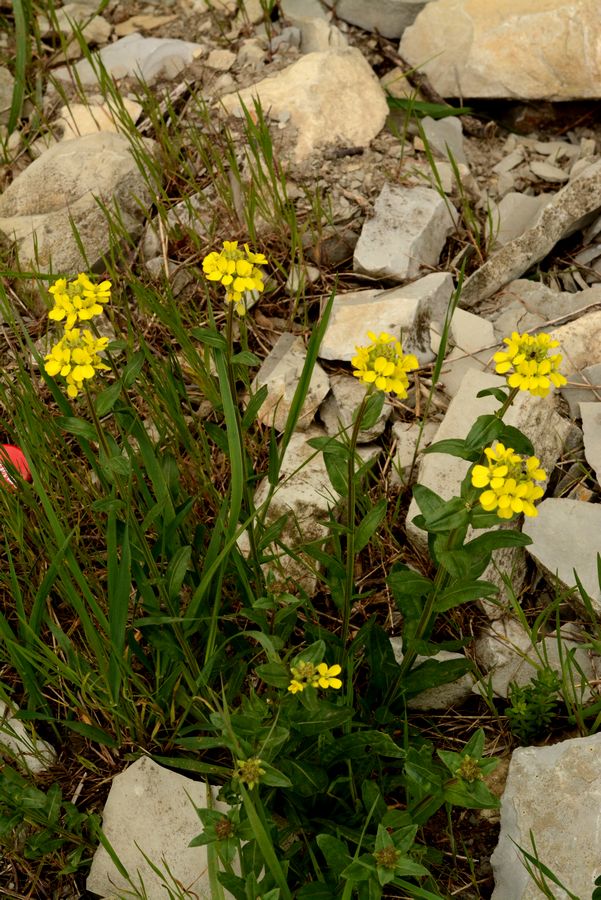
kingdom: Plantae
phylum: Tracheophyta
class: Magnoliopsida
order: Brassicales
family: Brassicaceae
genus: Erysimum
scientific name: Erysimum repandum
